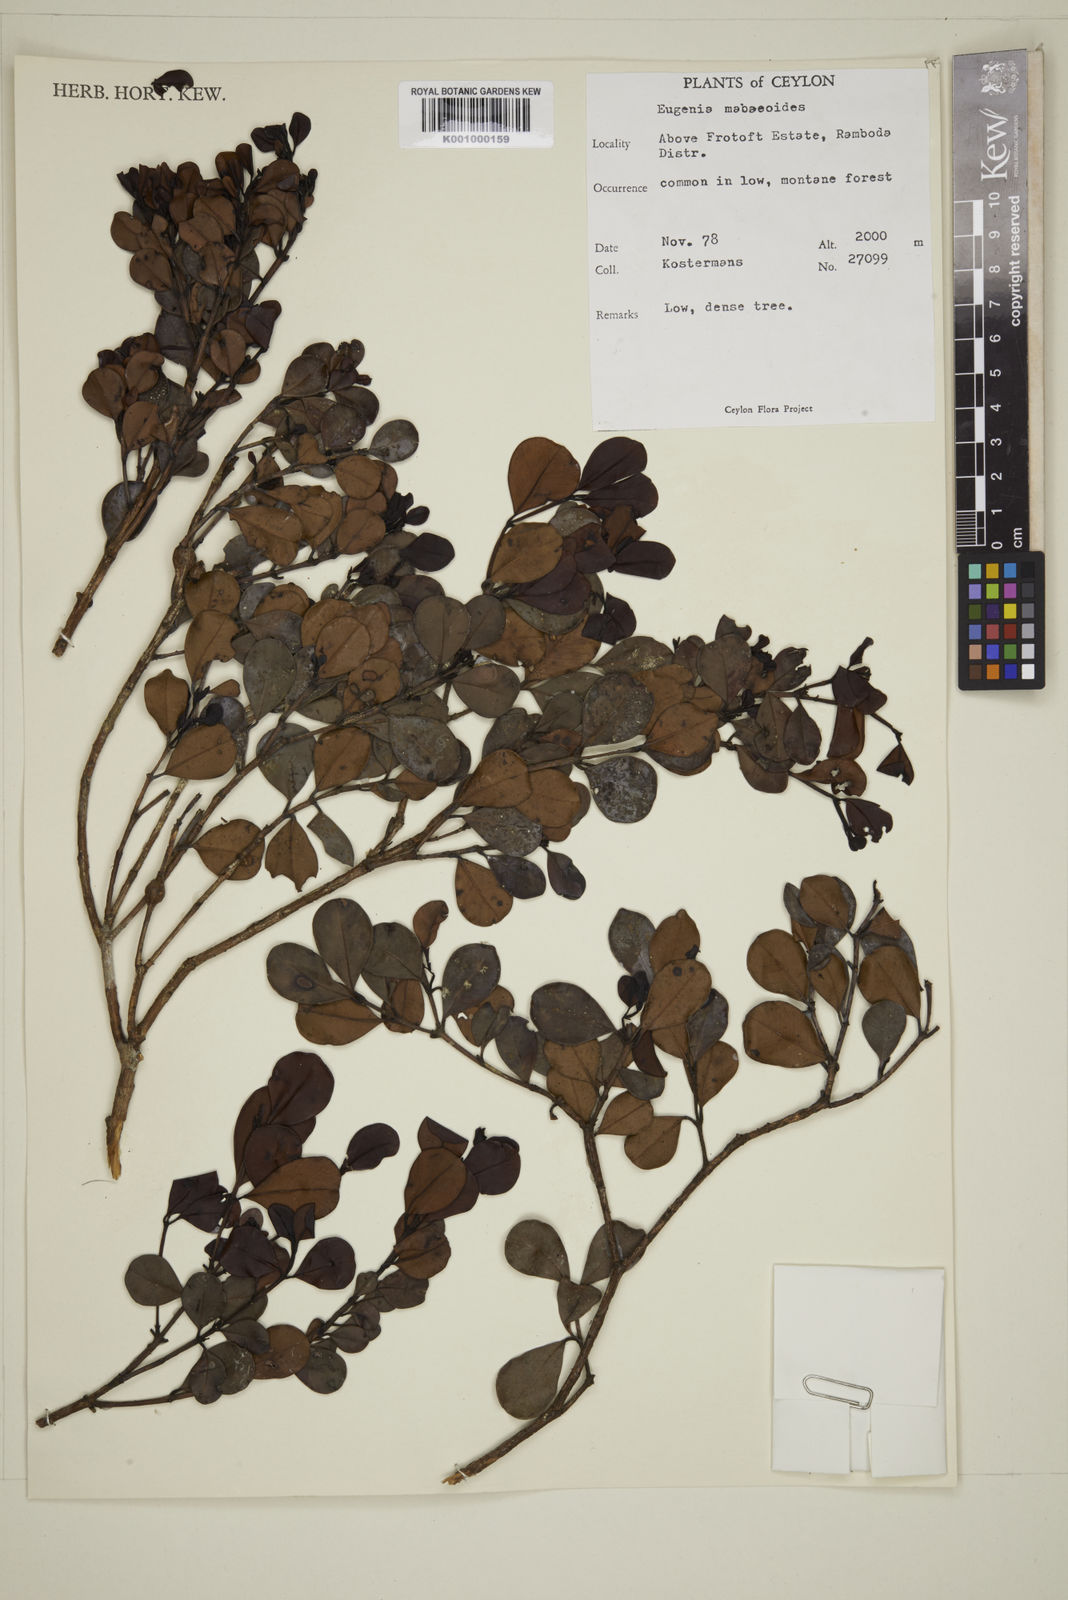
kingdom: Plantae
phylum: Tracheophyta
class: Magnoliopsida
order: Myrtales
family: Myrtaceae
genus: Syzygium
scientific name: Syzygium
